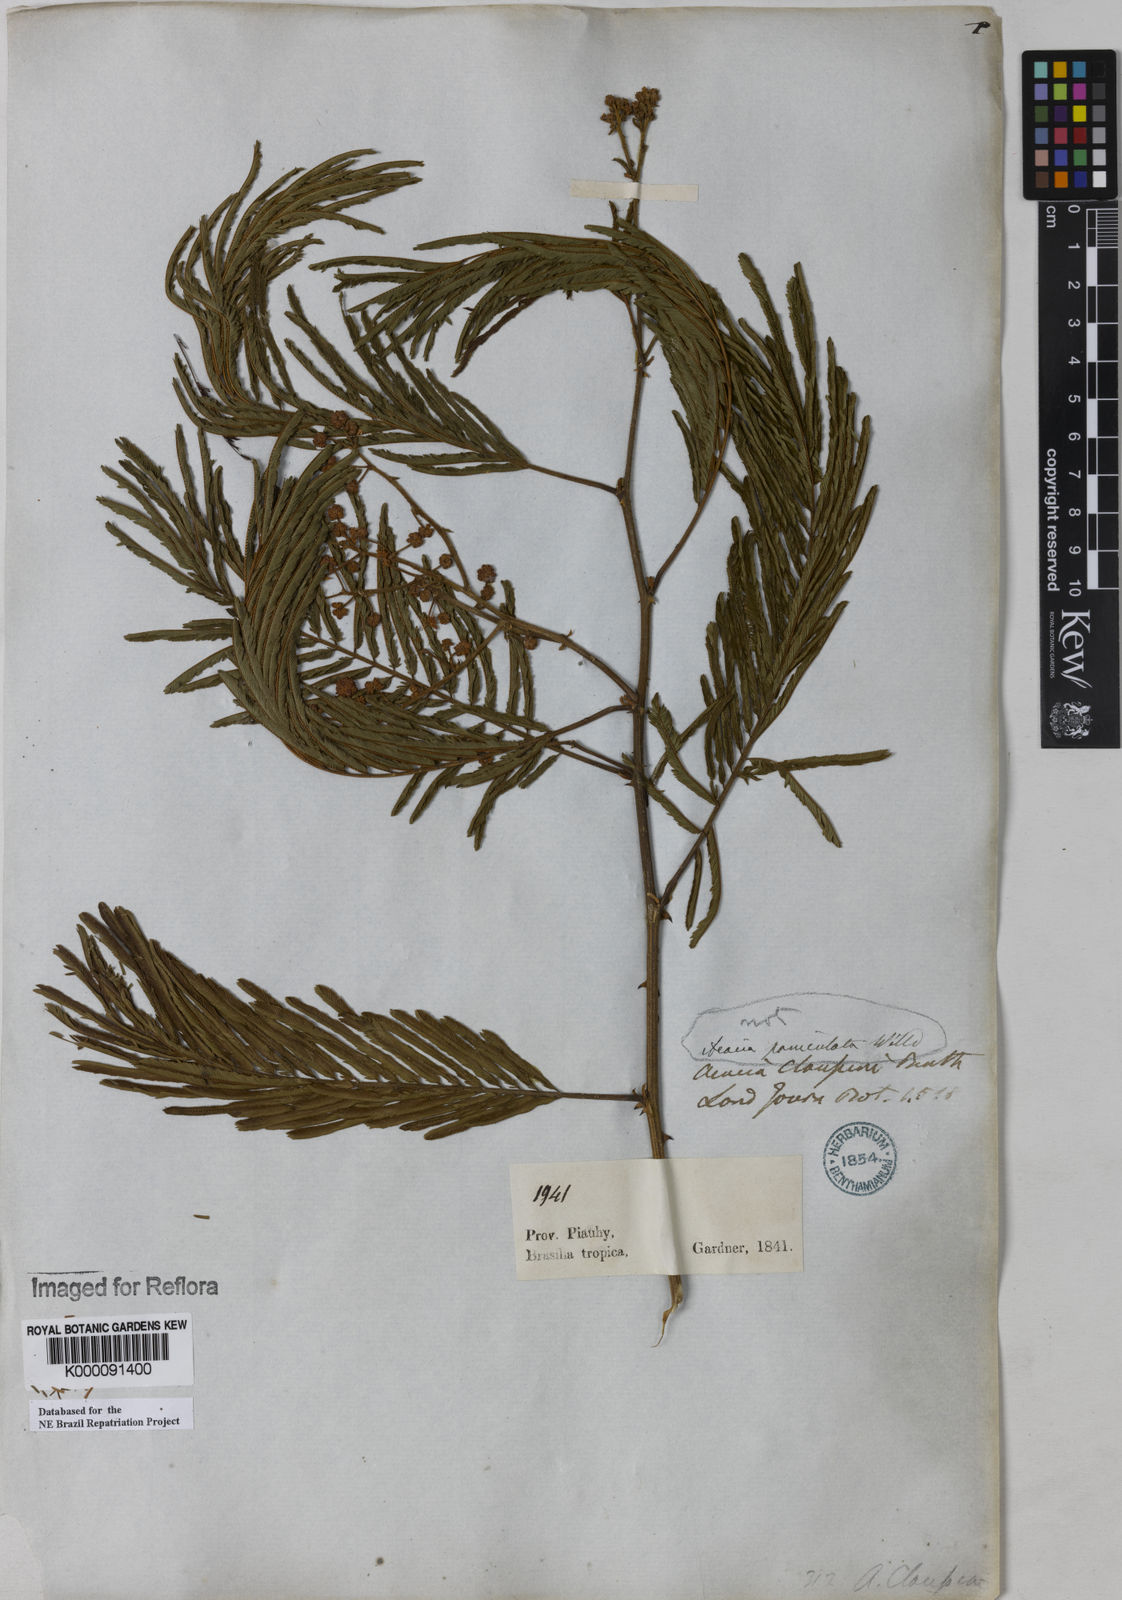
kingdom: Plantae
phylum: Tracheophyta
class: Magnoliopsida
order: Fabales
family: Fabaceae
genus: Senegalia
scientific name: Senegalia tenuifolia
